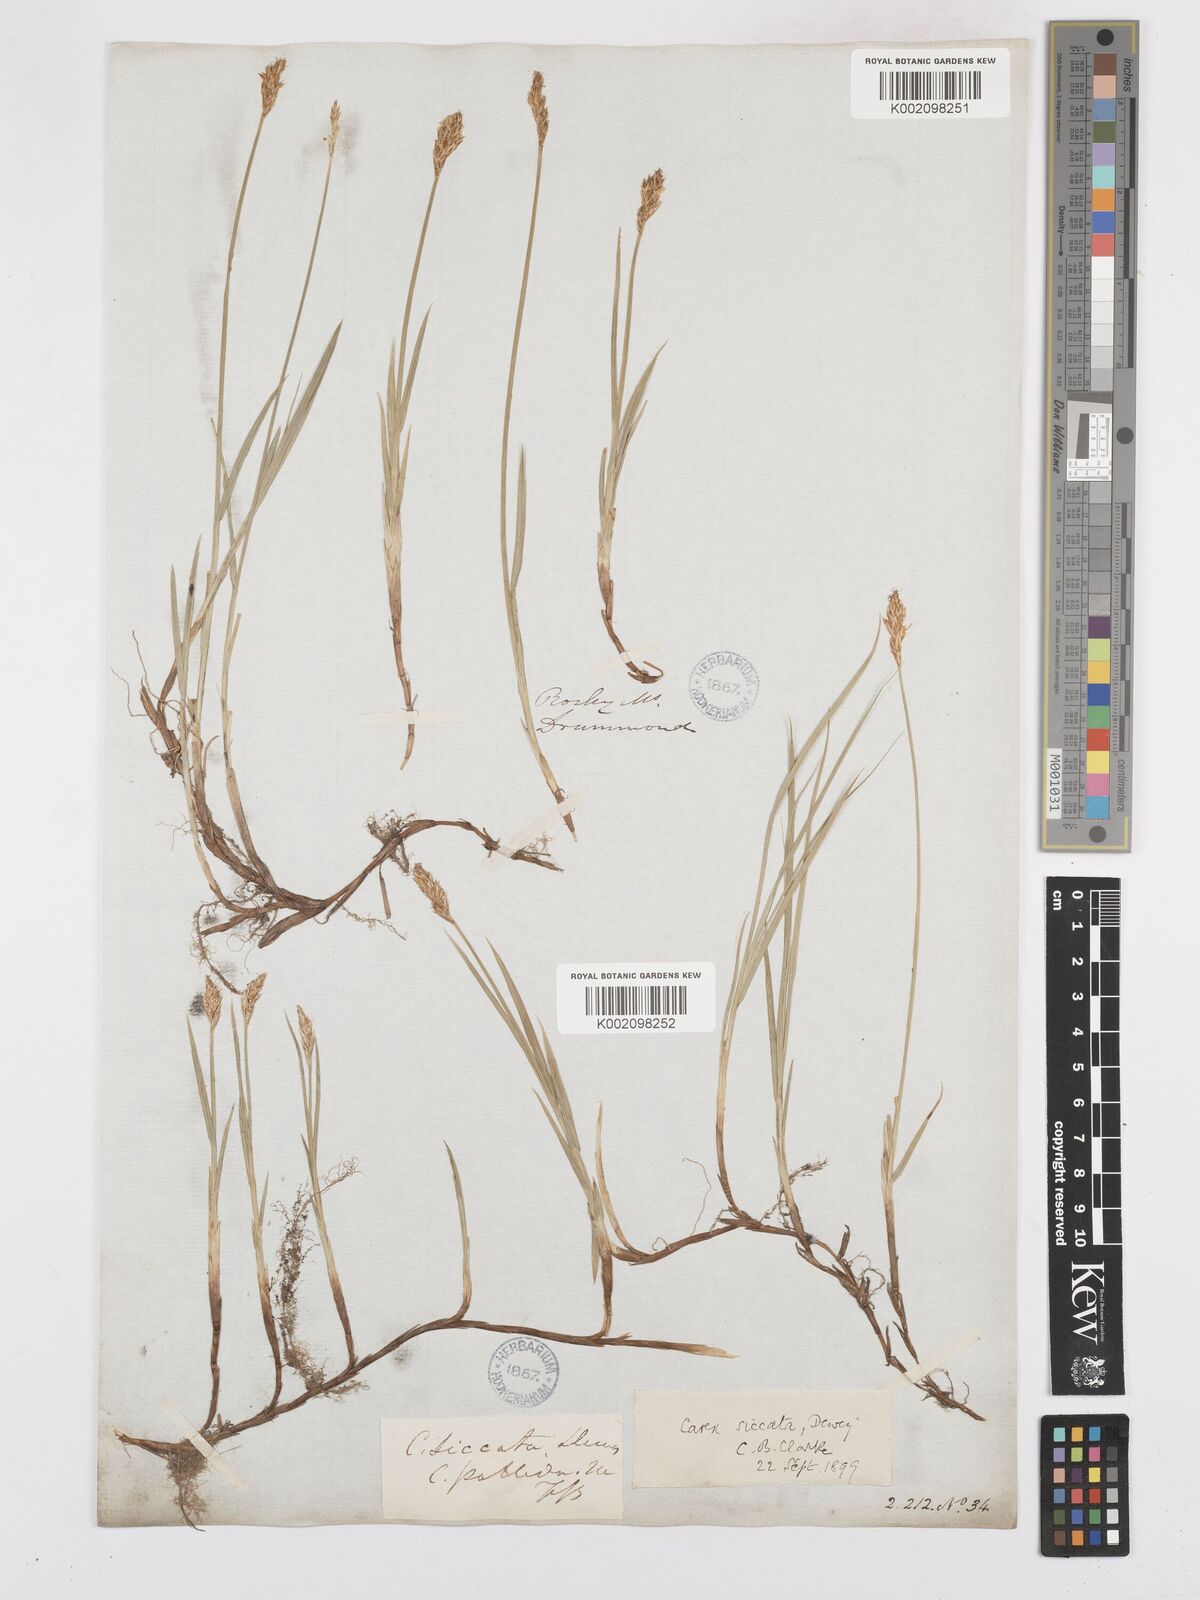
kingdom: Plantae
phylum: Tracheophyta
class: Liliopsida
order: Poales
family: Cyperaceae
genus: Carex
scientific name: Carex foenea
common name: Bronze sedge
